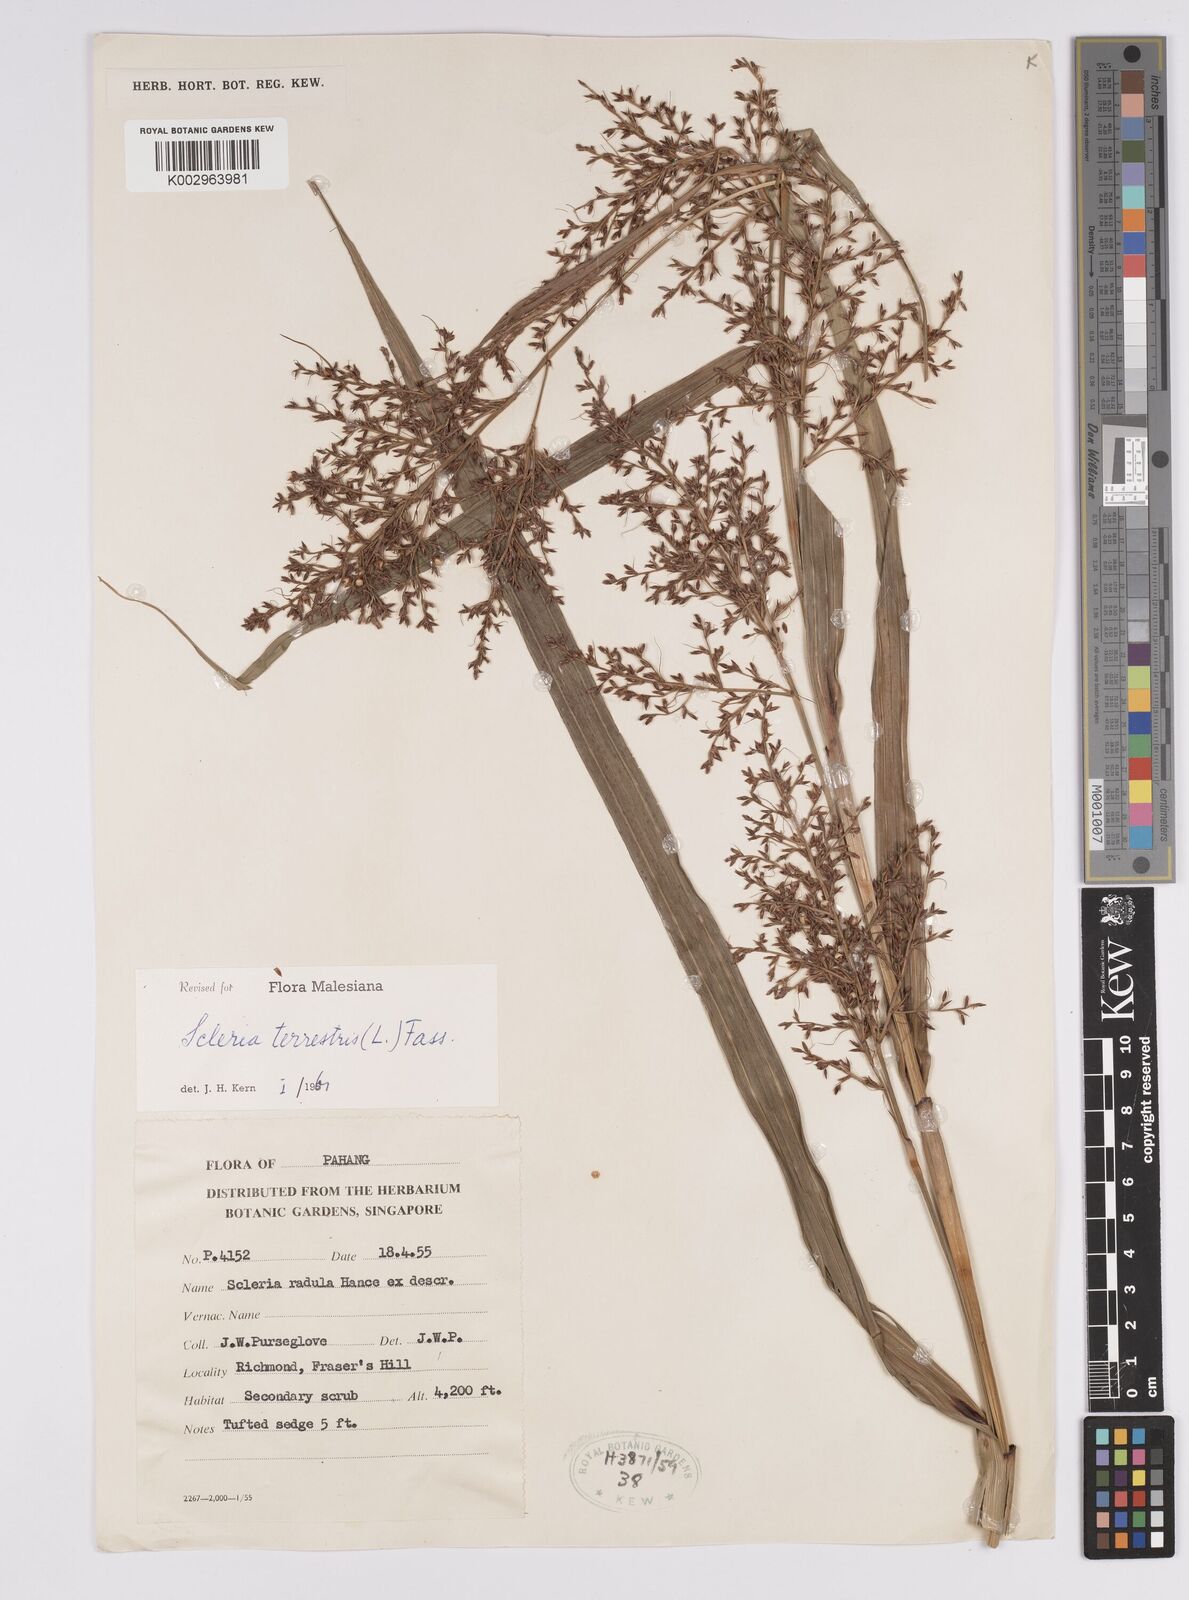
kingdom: Plantae
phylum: Tracheophyta
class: Liliopsida
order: Poales
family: Cyperaceae
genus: Scleria
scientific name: Scleria terrestris
